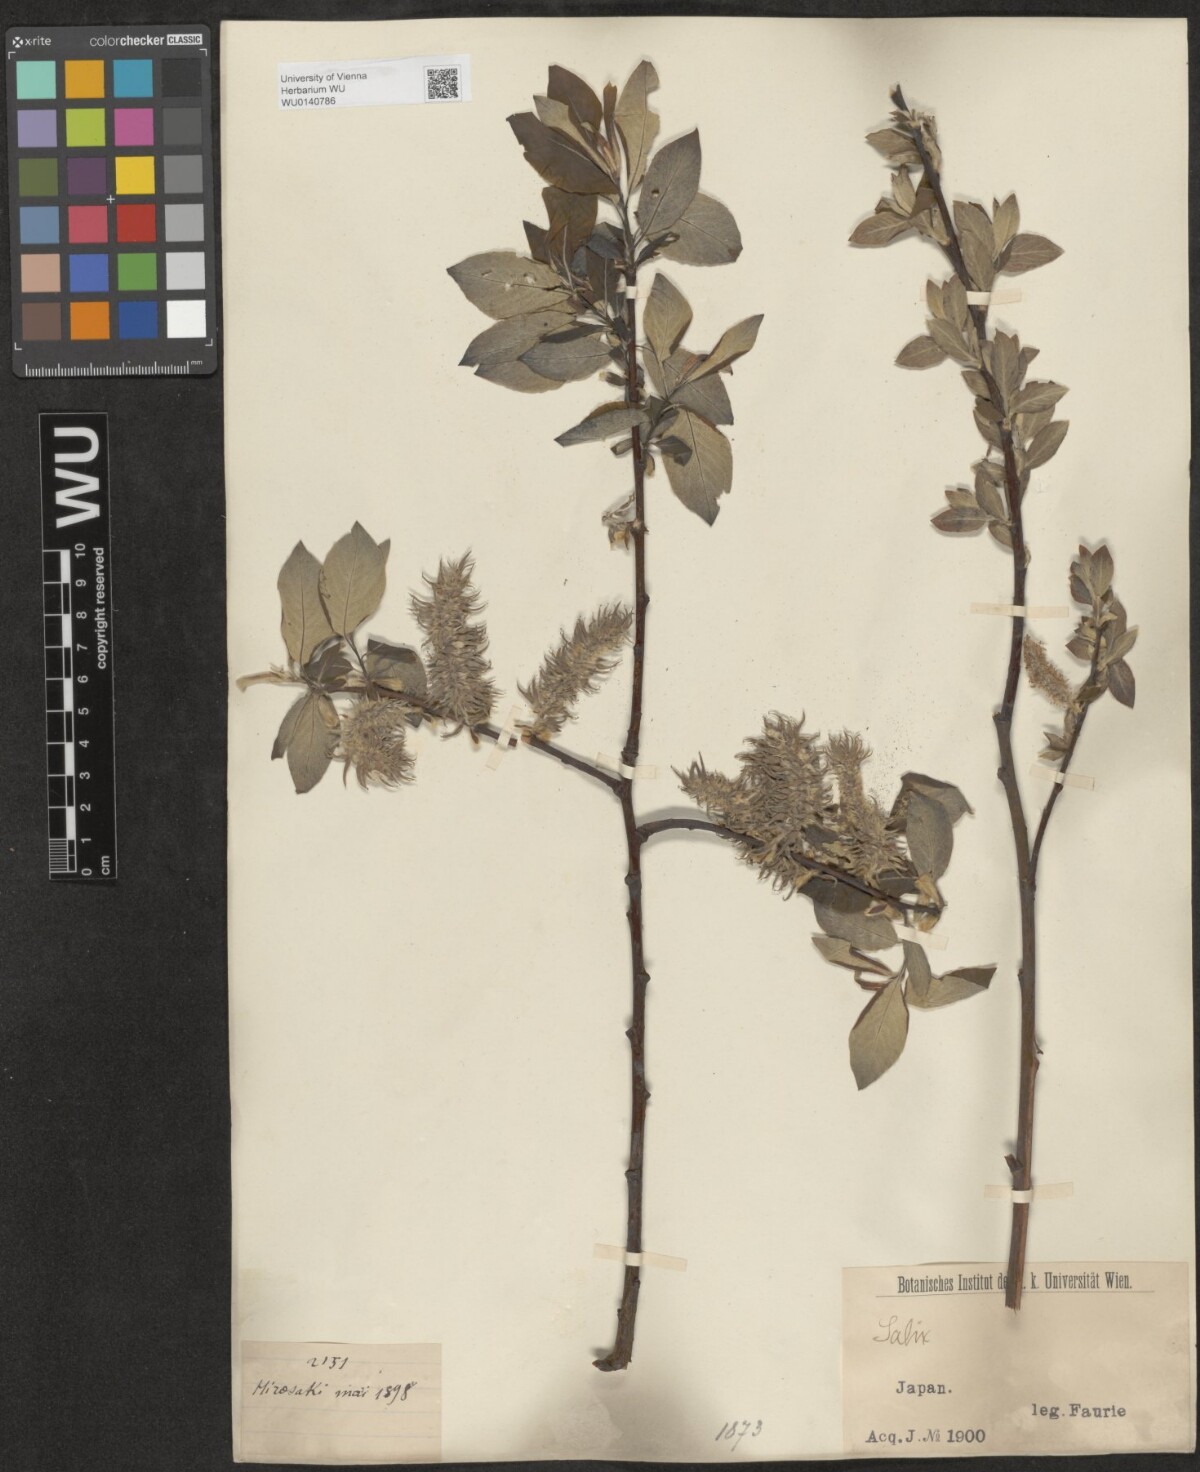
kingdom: Plantae
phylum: Tracheophyta
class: Magnoliopsida
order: Malpighiales
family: Salicaceae
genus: Salix
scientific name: Salix
